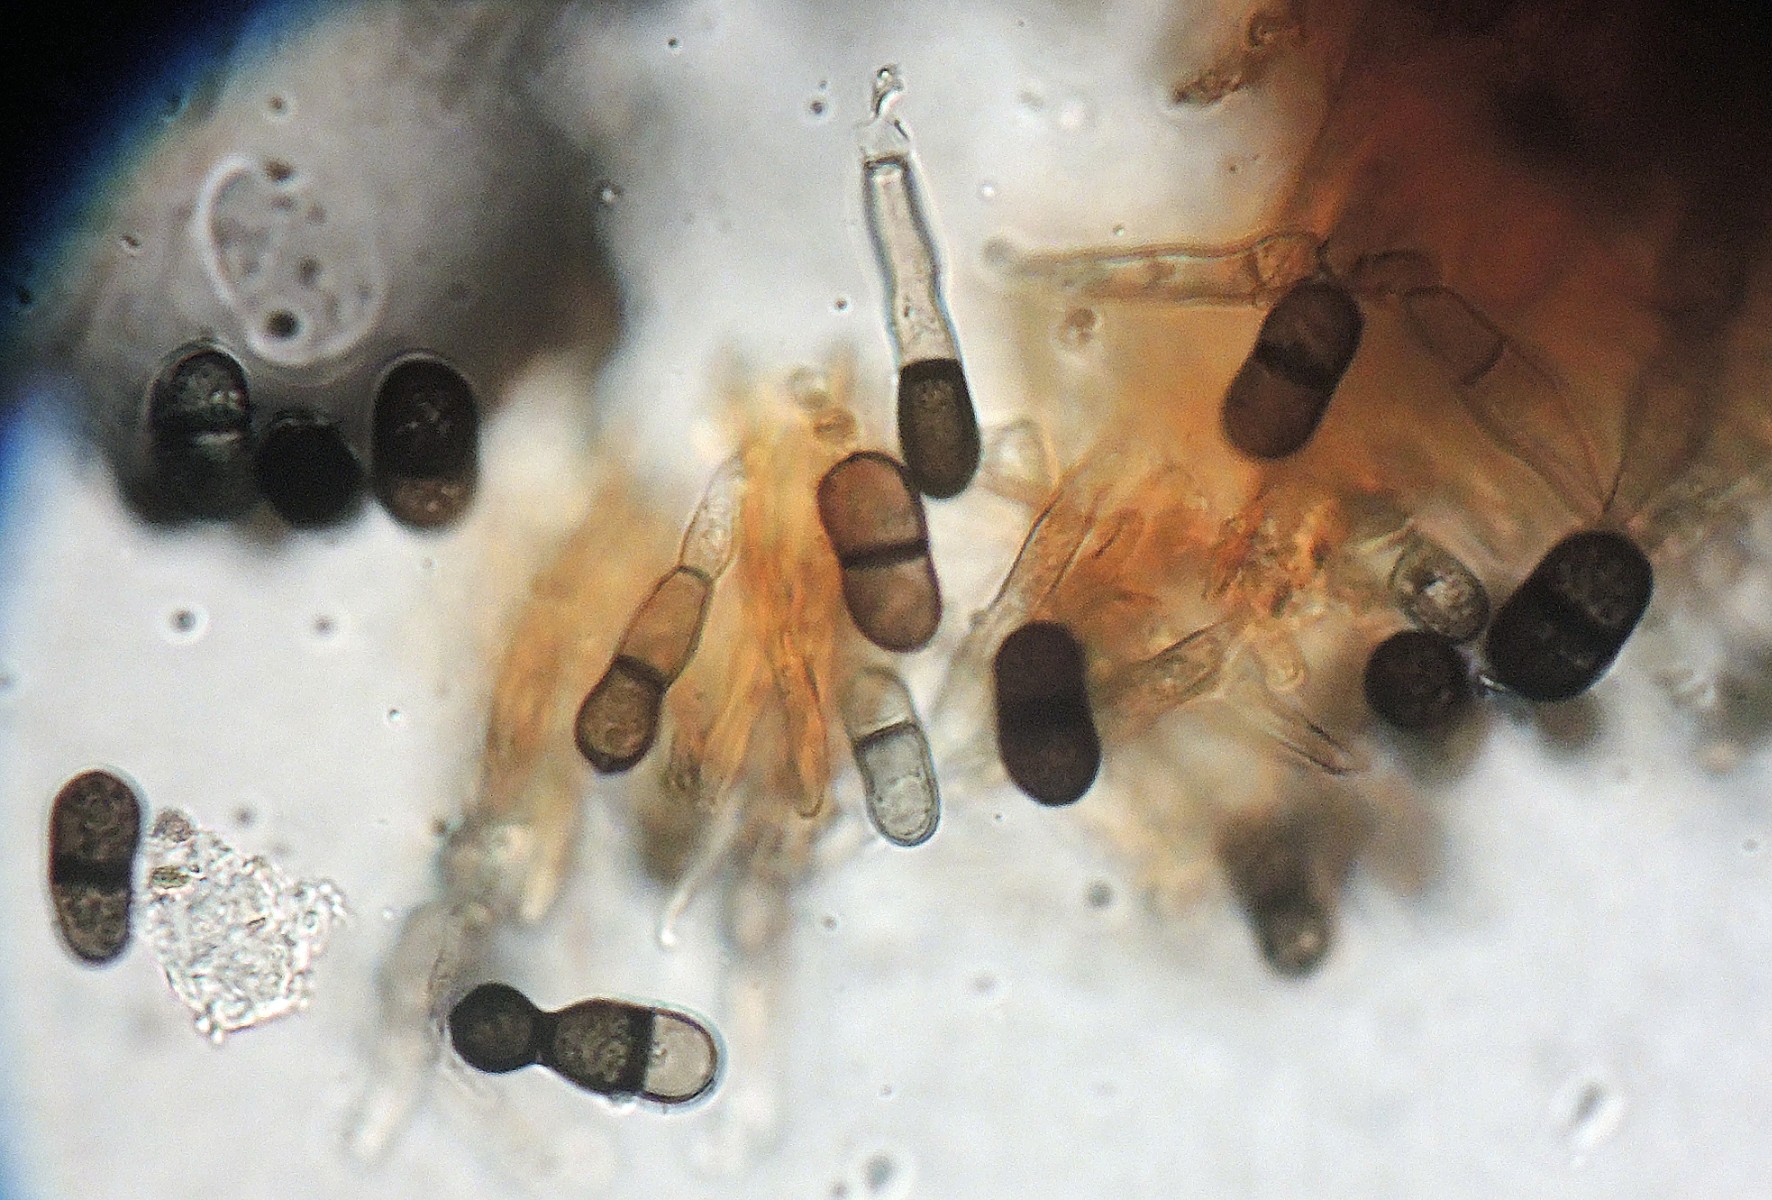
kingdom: Fungi
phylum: Ascomycota
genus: Porophilomyces
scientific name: Porophilomyces poricola
